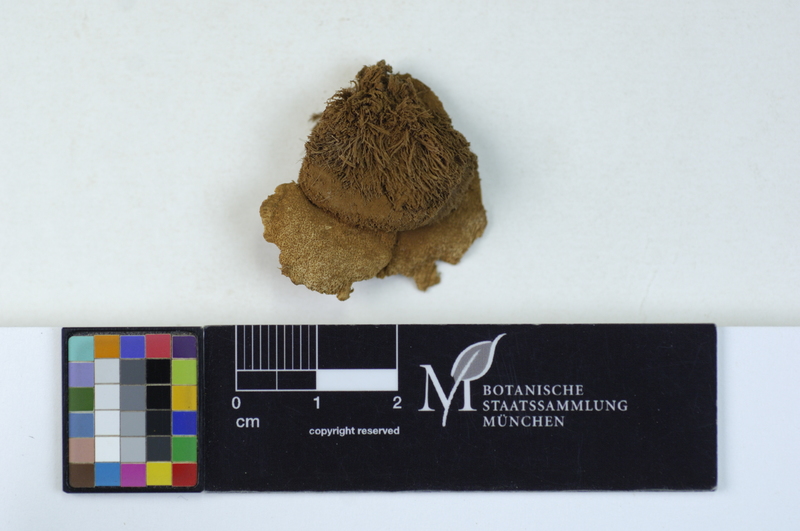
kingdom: Fungi
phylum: Basidiomycota
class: Agaricomycetes
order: Polyporales
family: Dacryobolaceae
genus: Postia
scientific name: Postia ptychogaster
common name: Powderpuff bracket
